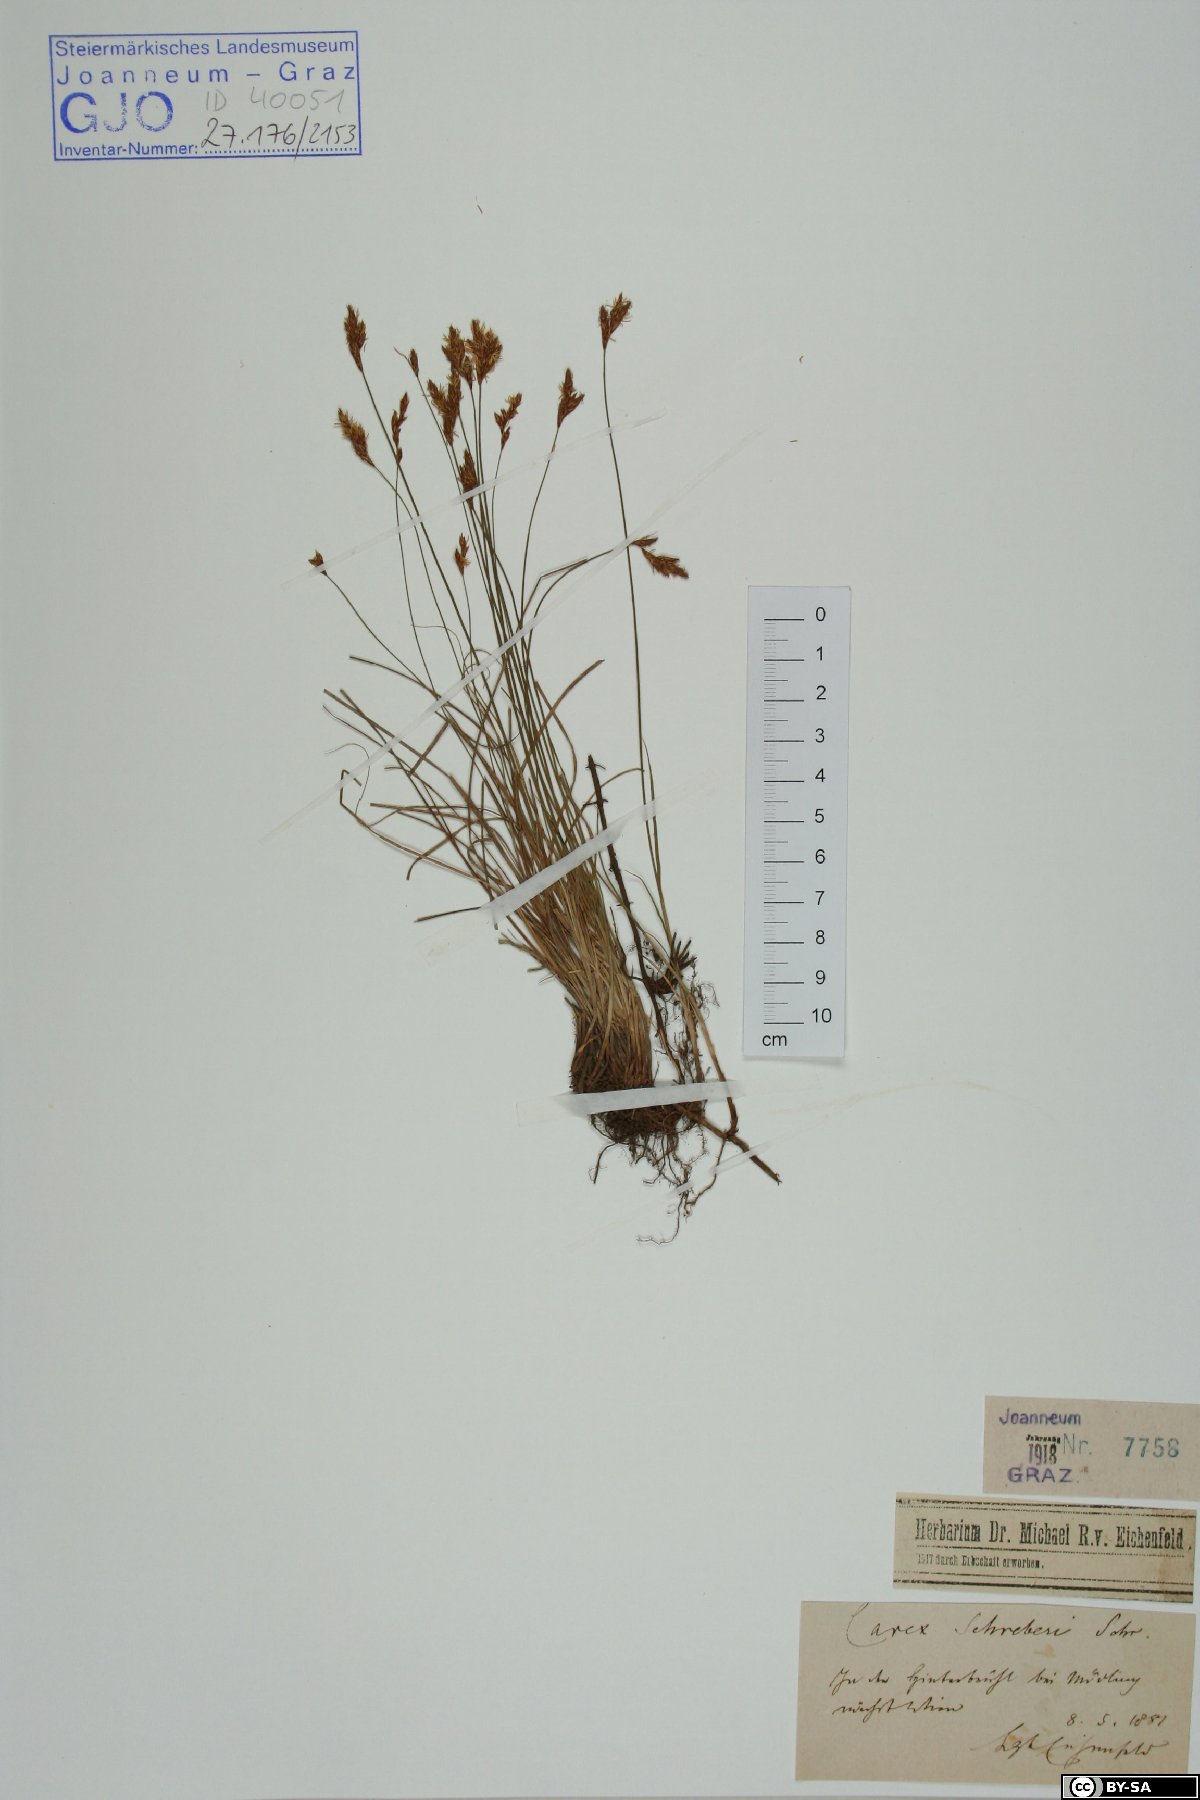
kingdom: Plantae
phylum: Tracheophyta
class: Liliopsida
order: Poales
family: Cyperaceae
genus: Carex
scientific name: Carex praecox
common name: Early sedge
